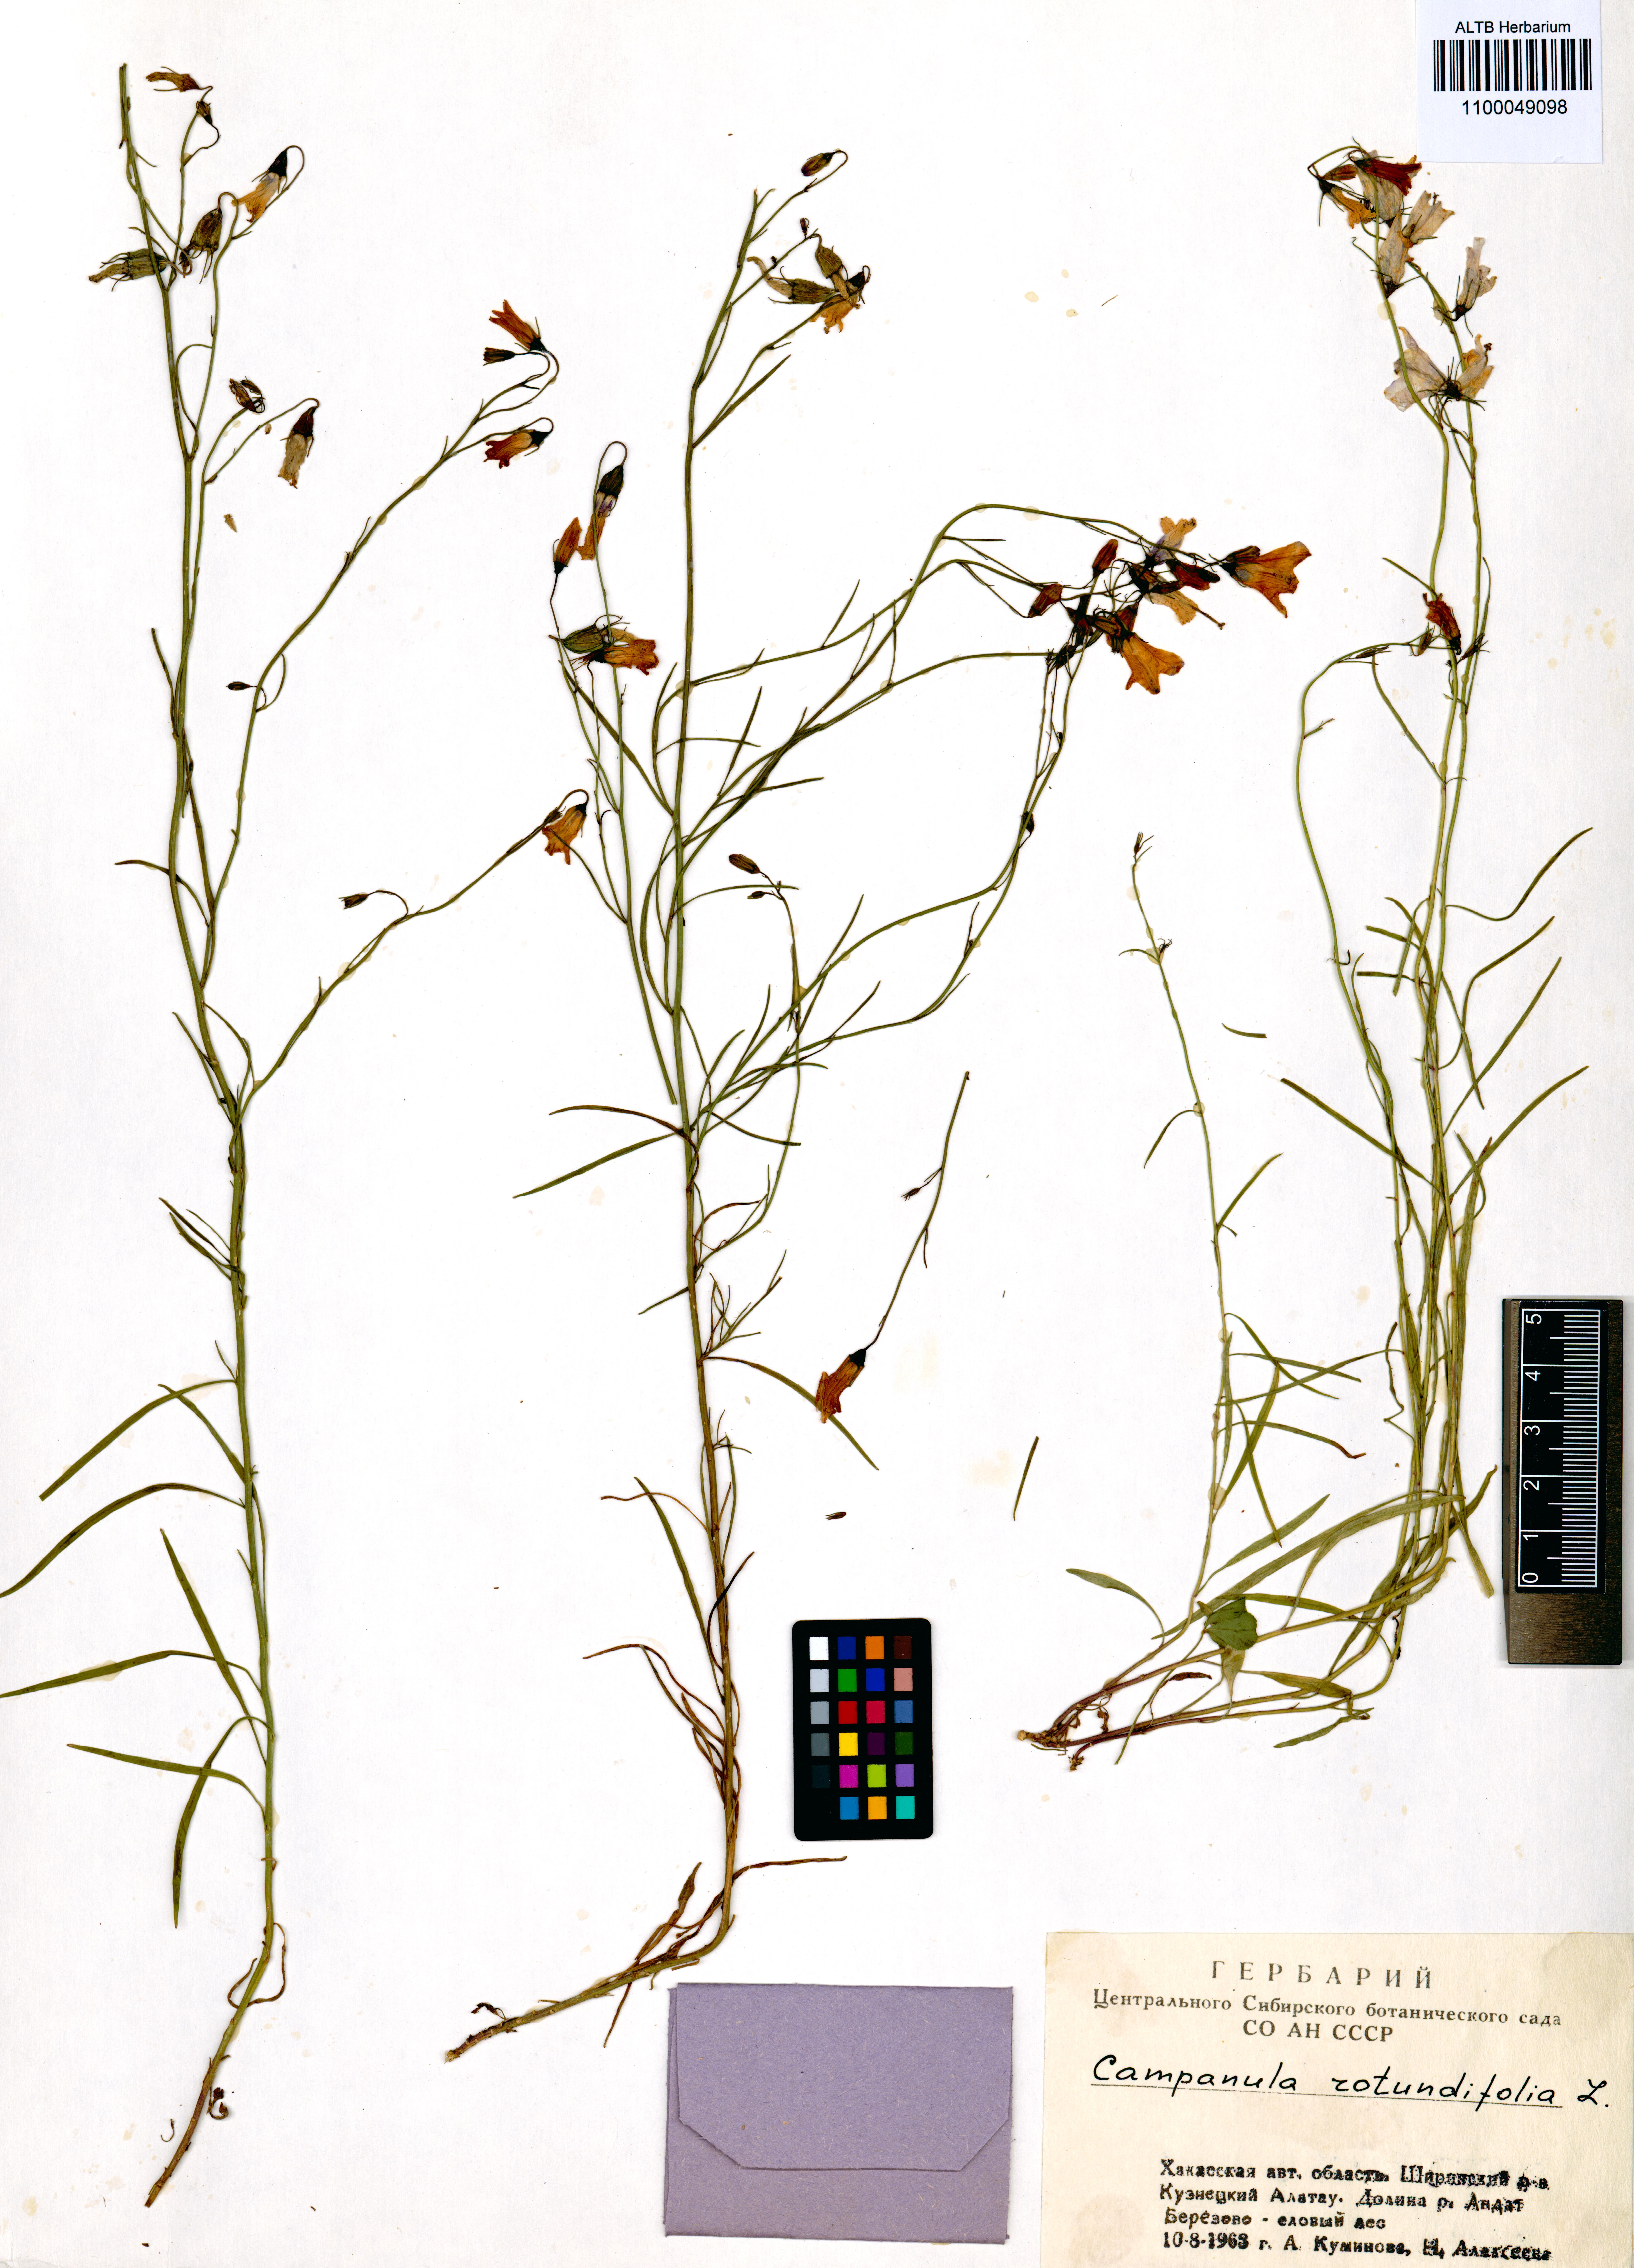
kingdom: Plantae
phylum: Tracheophyta
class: Magnoliopsida
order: Asterales
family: Campanulaceae
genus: Campanula
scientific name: Campanula rotundifolia
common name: Harebell
